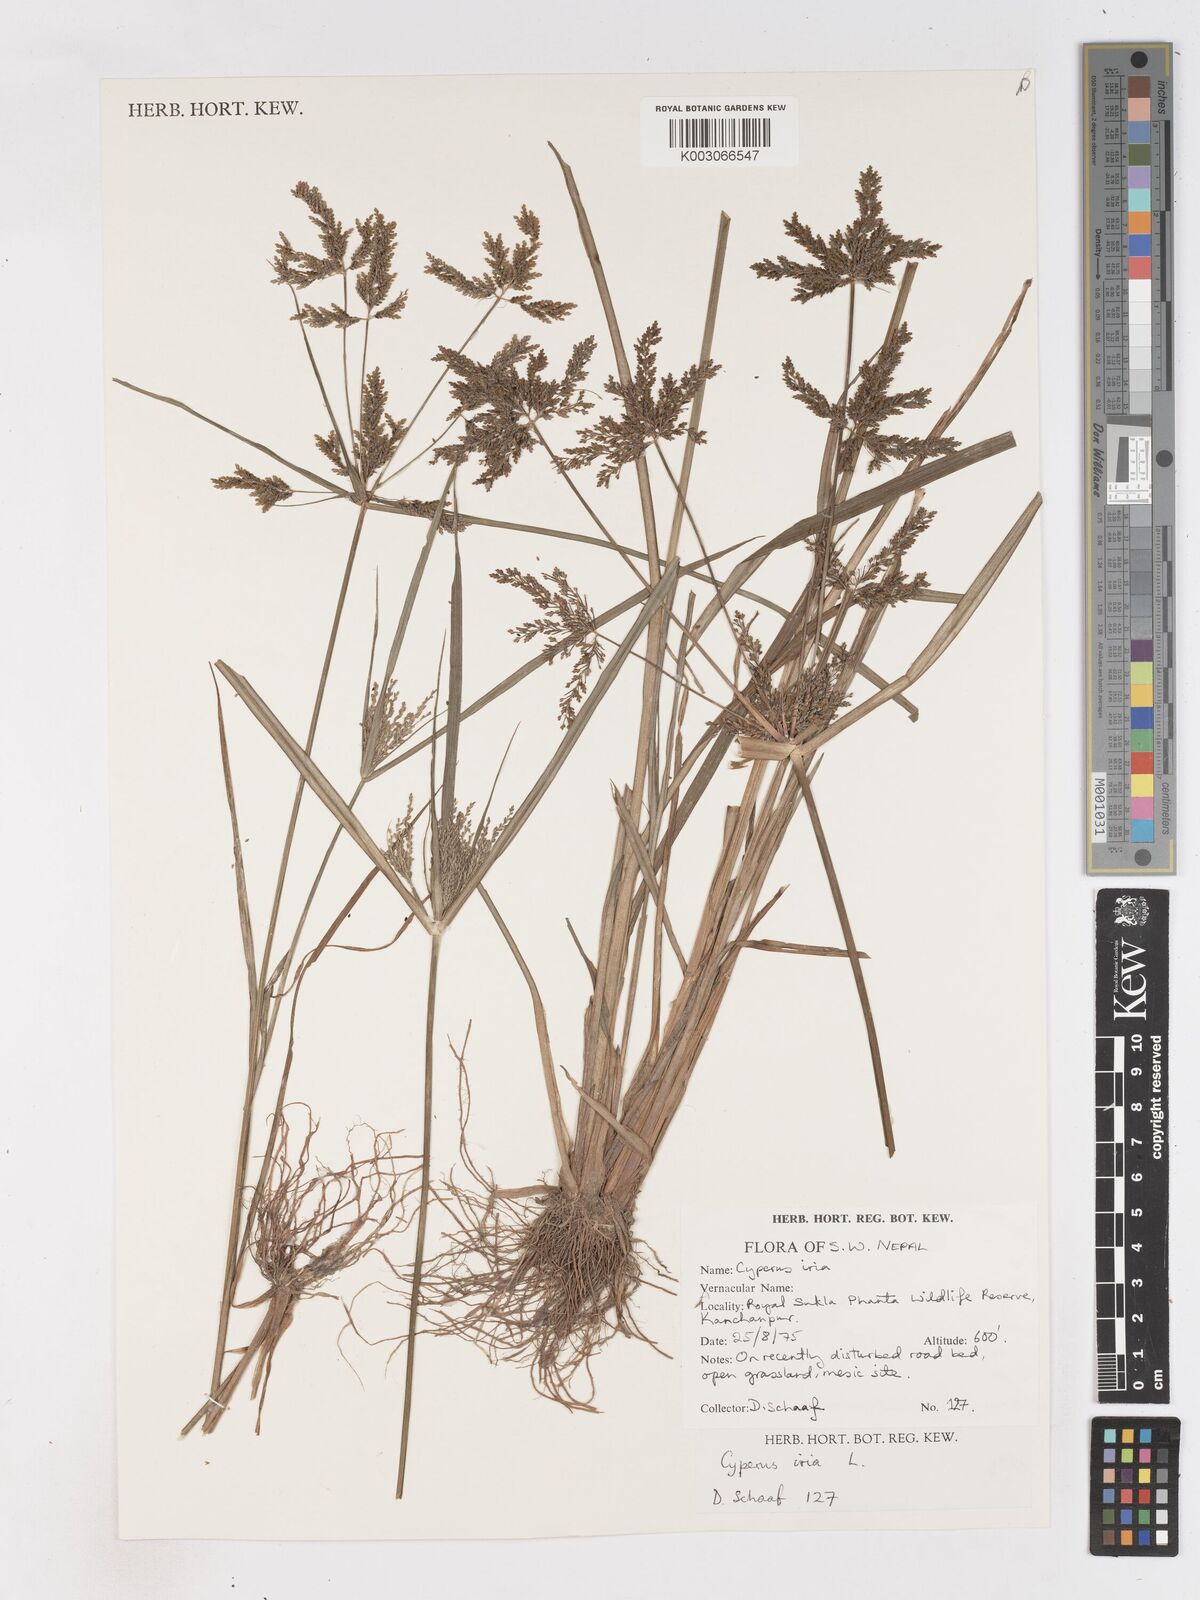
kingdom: Plantae
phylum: Tracheophyta
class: Liliopsida
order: Poales
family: Cyperaceae
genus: Cyperus
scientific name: Cyperus iria
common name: Ricefield flatsedge
